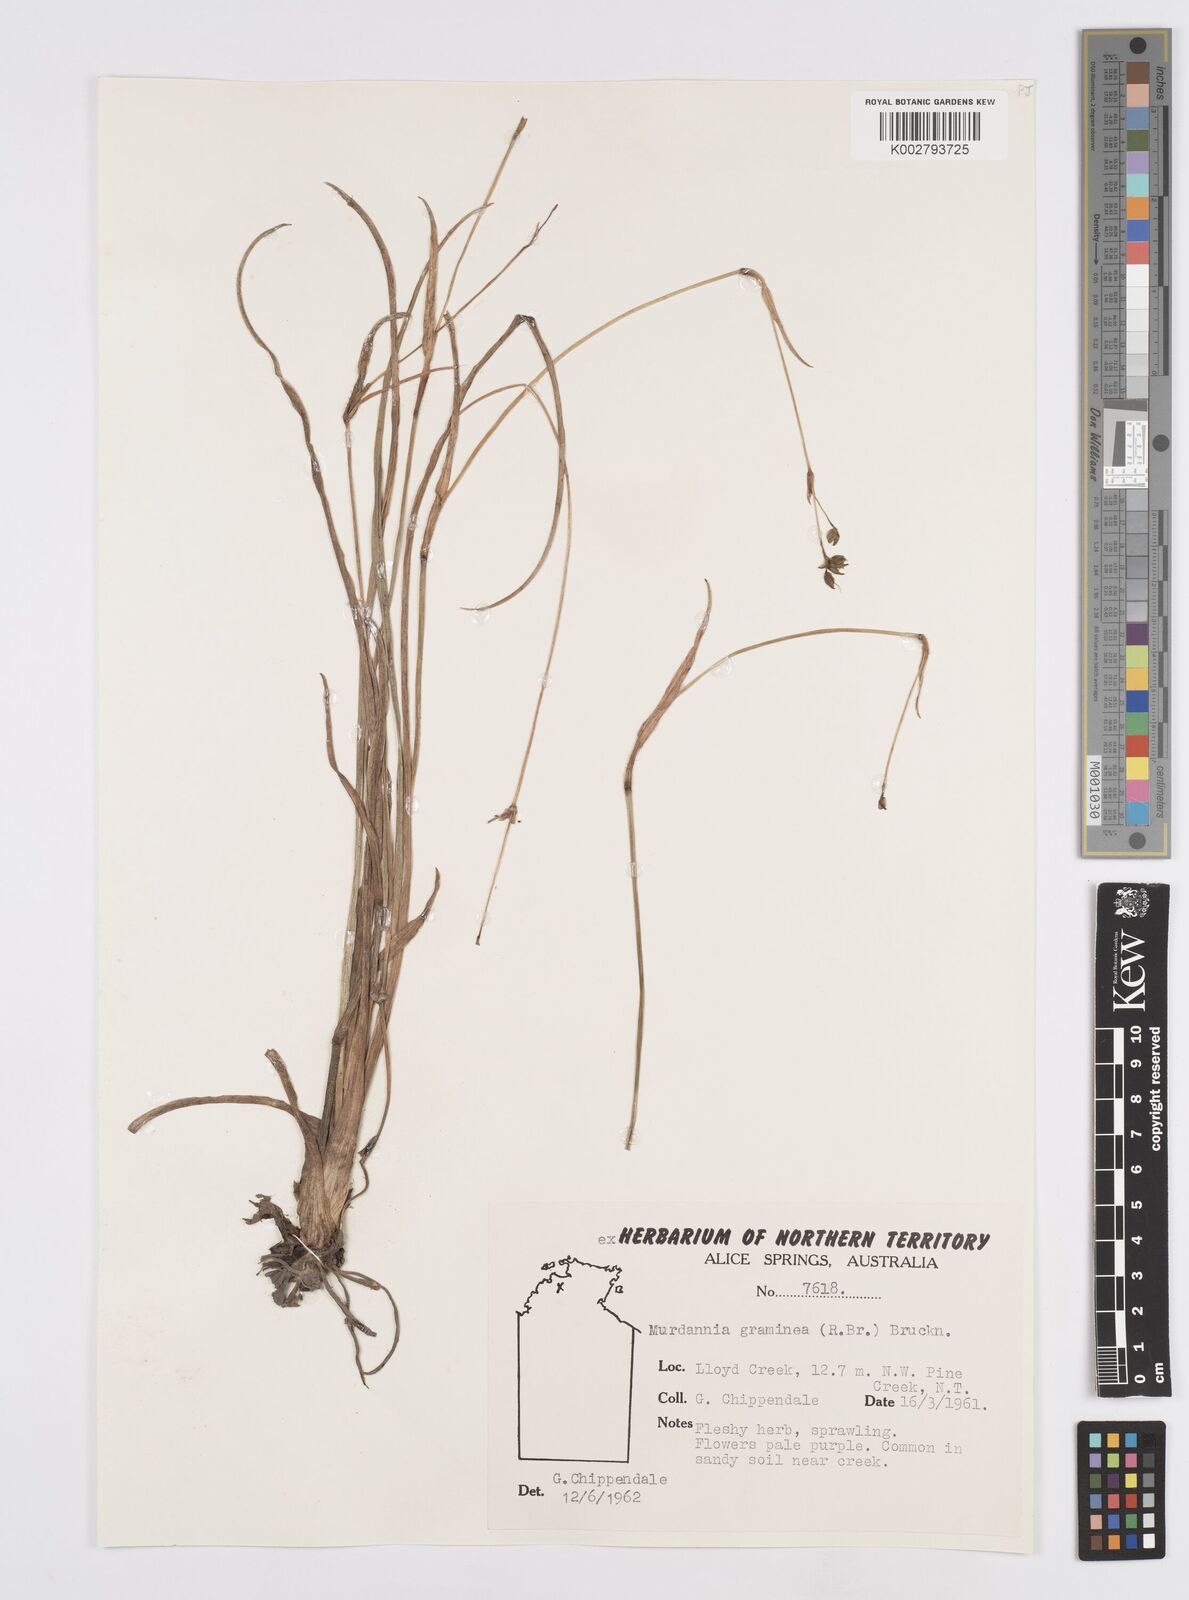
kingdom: Plantae
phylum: Tracheophyta
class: Liliopsida
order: Commelinales
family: Commelinaceae
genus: Murdannia
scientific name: Murdannia graminea
